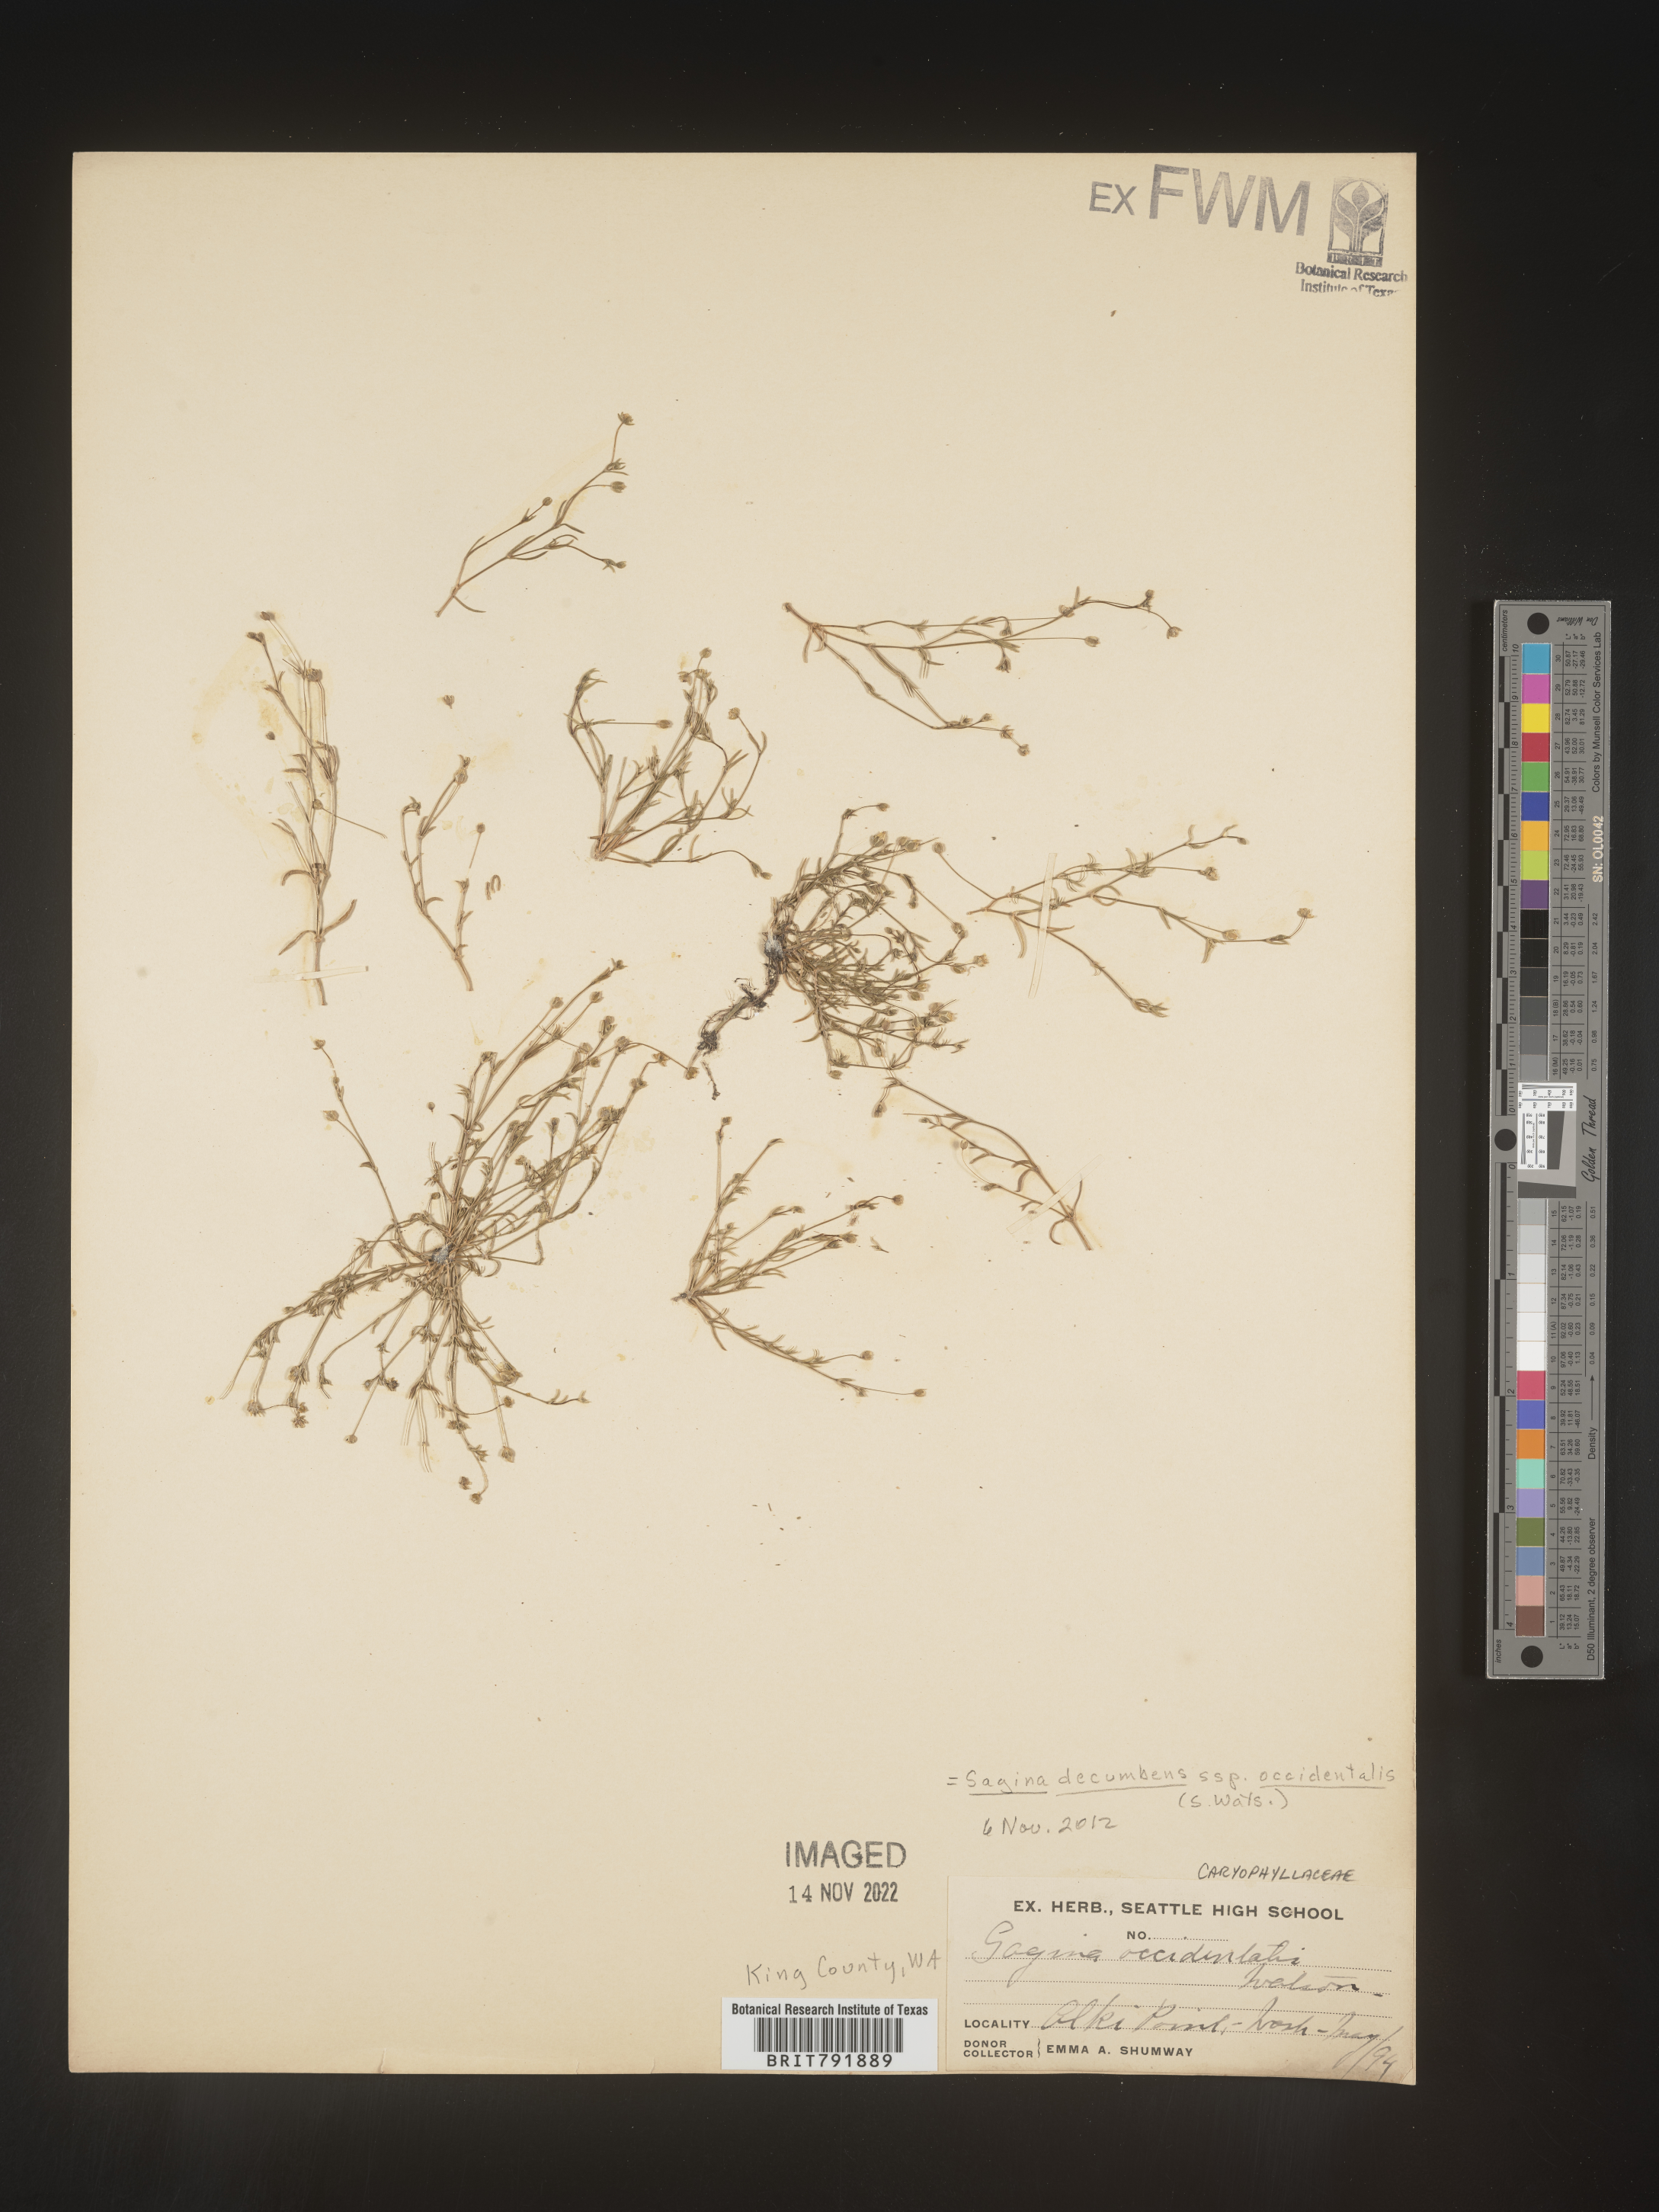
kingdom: Plantae
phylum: Tracheophyta
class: Magnoliopsida
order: Caryophyllales
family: Caryophyllaceae
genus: Sagina
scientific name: Sagina decumbens
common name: Decumbent pearlwort
